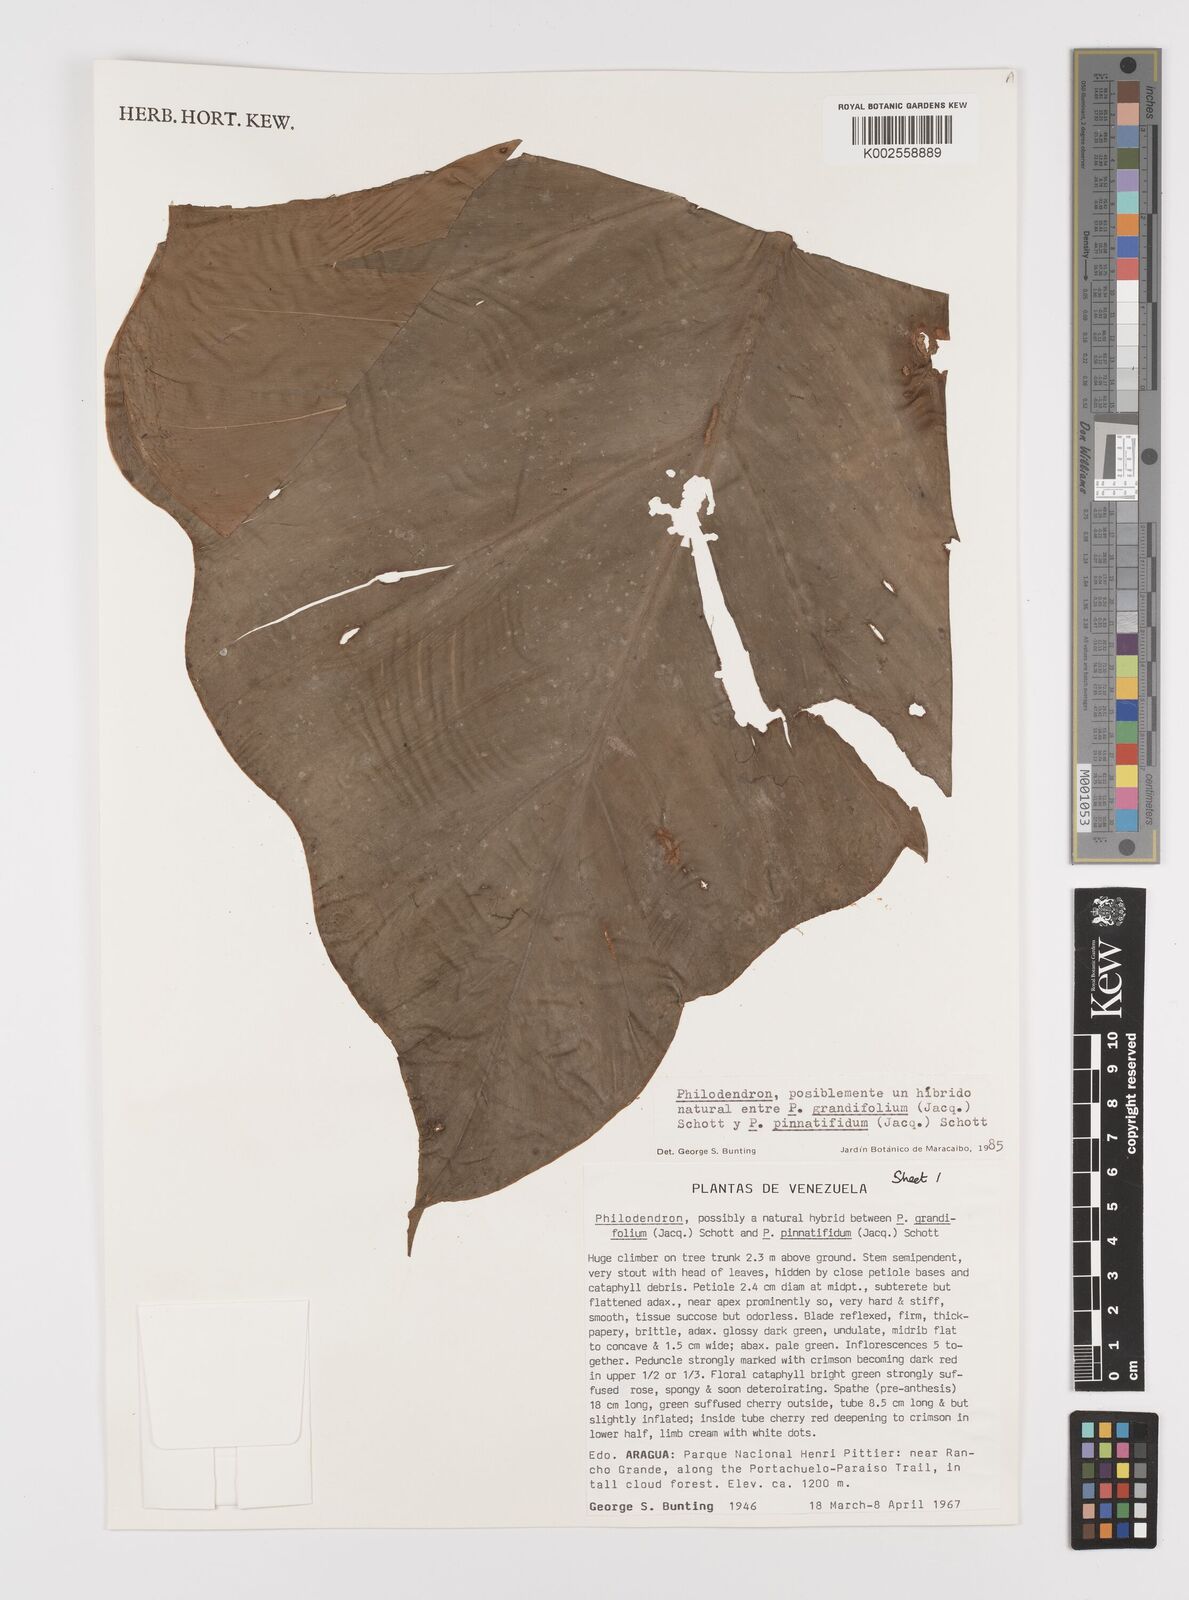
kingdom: Plantae
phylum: Tracheophyta
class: Liliopsida
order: Alismatales
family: Araceae
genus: Philodendron
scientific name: Philodendron grandifolium
